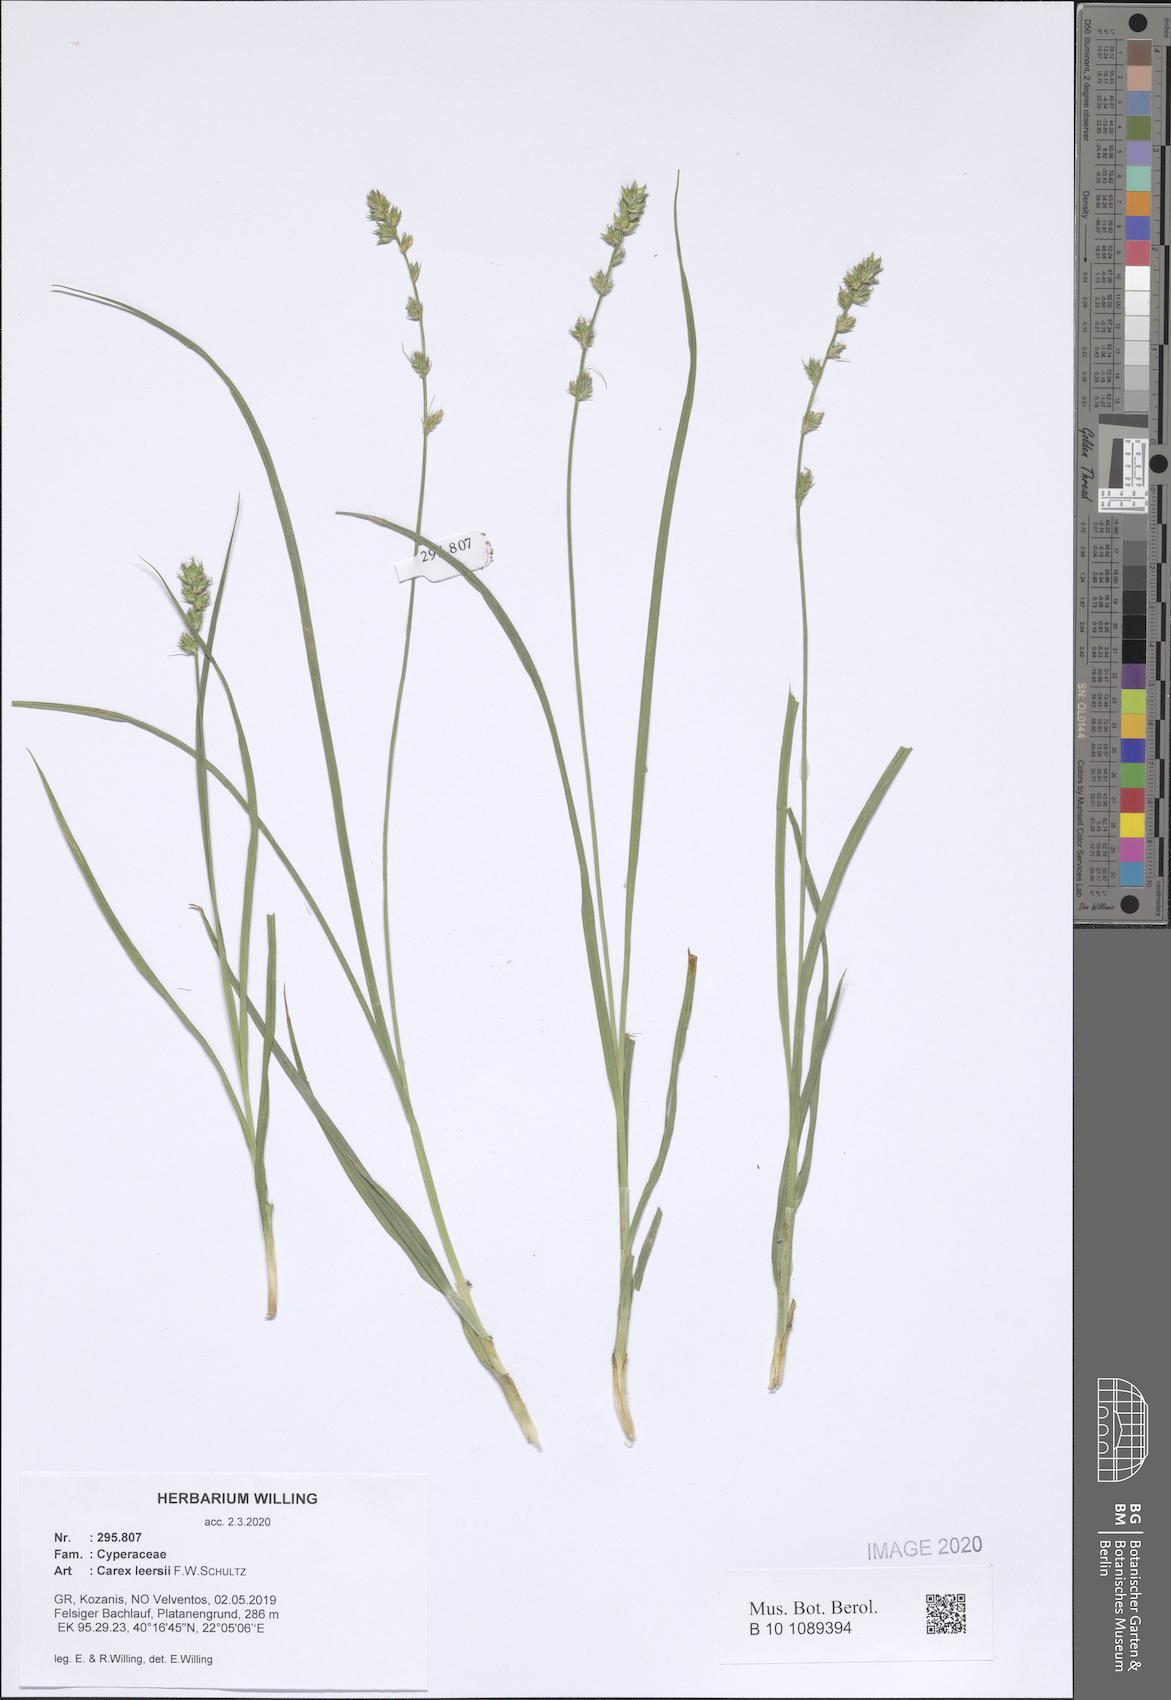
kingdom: Plantae
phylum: Tracheophyta
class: Liliopsida
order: Poales
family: Cyperaceae
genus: Carex
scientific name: Carex leersii
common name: Leers' sedge
